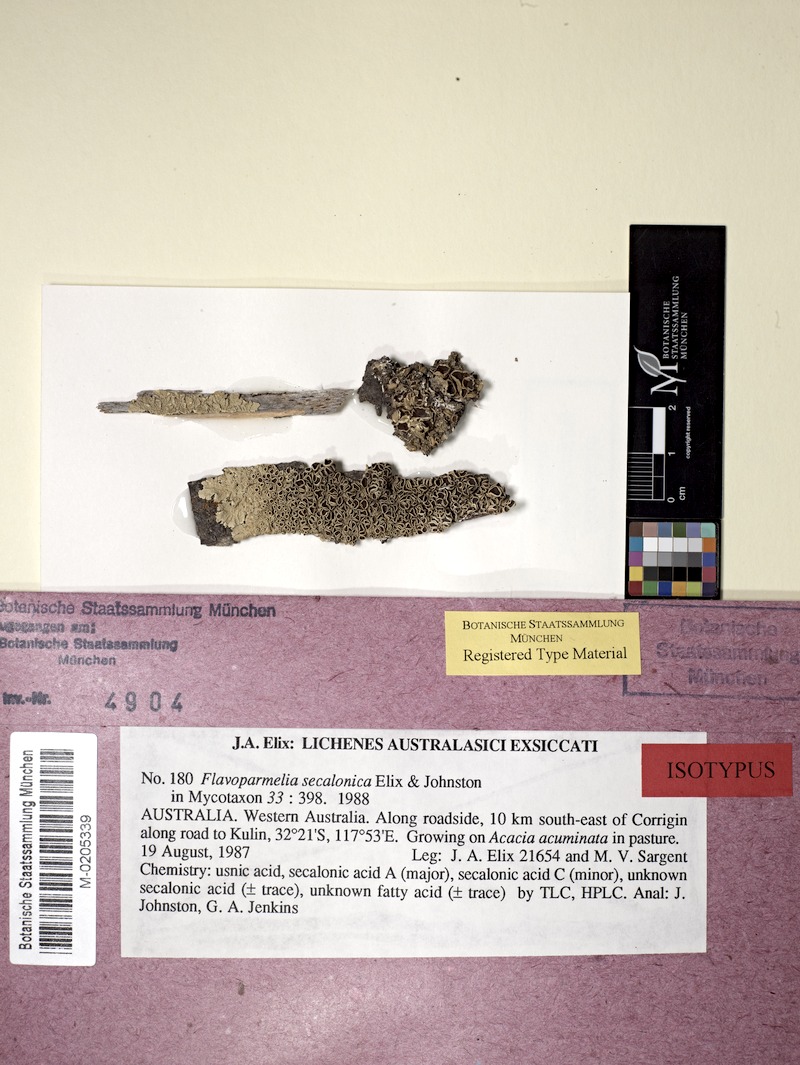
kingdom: Fungi
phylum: Ascomycota
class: Lecanoromycetes
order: Lecanorales
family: Parmeliaceae
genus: Flavoparmelia
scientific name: Flavoparmelia secalonica
